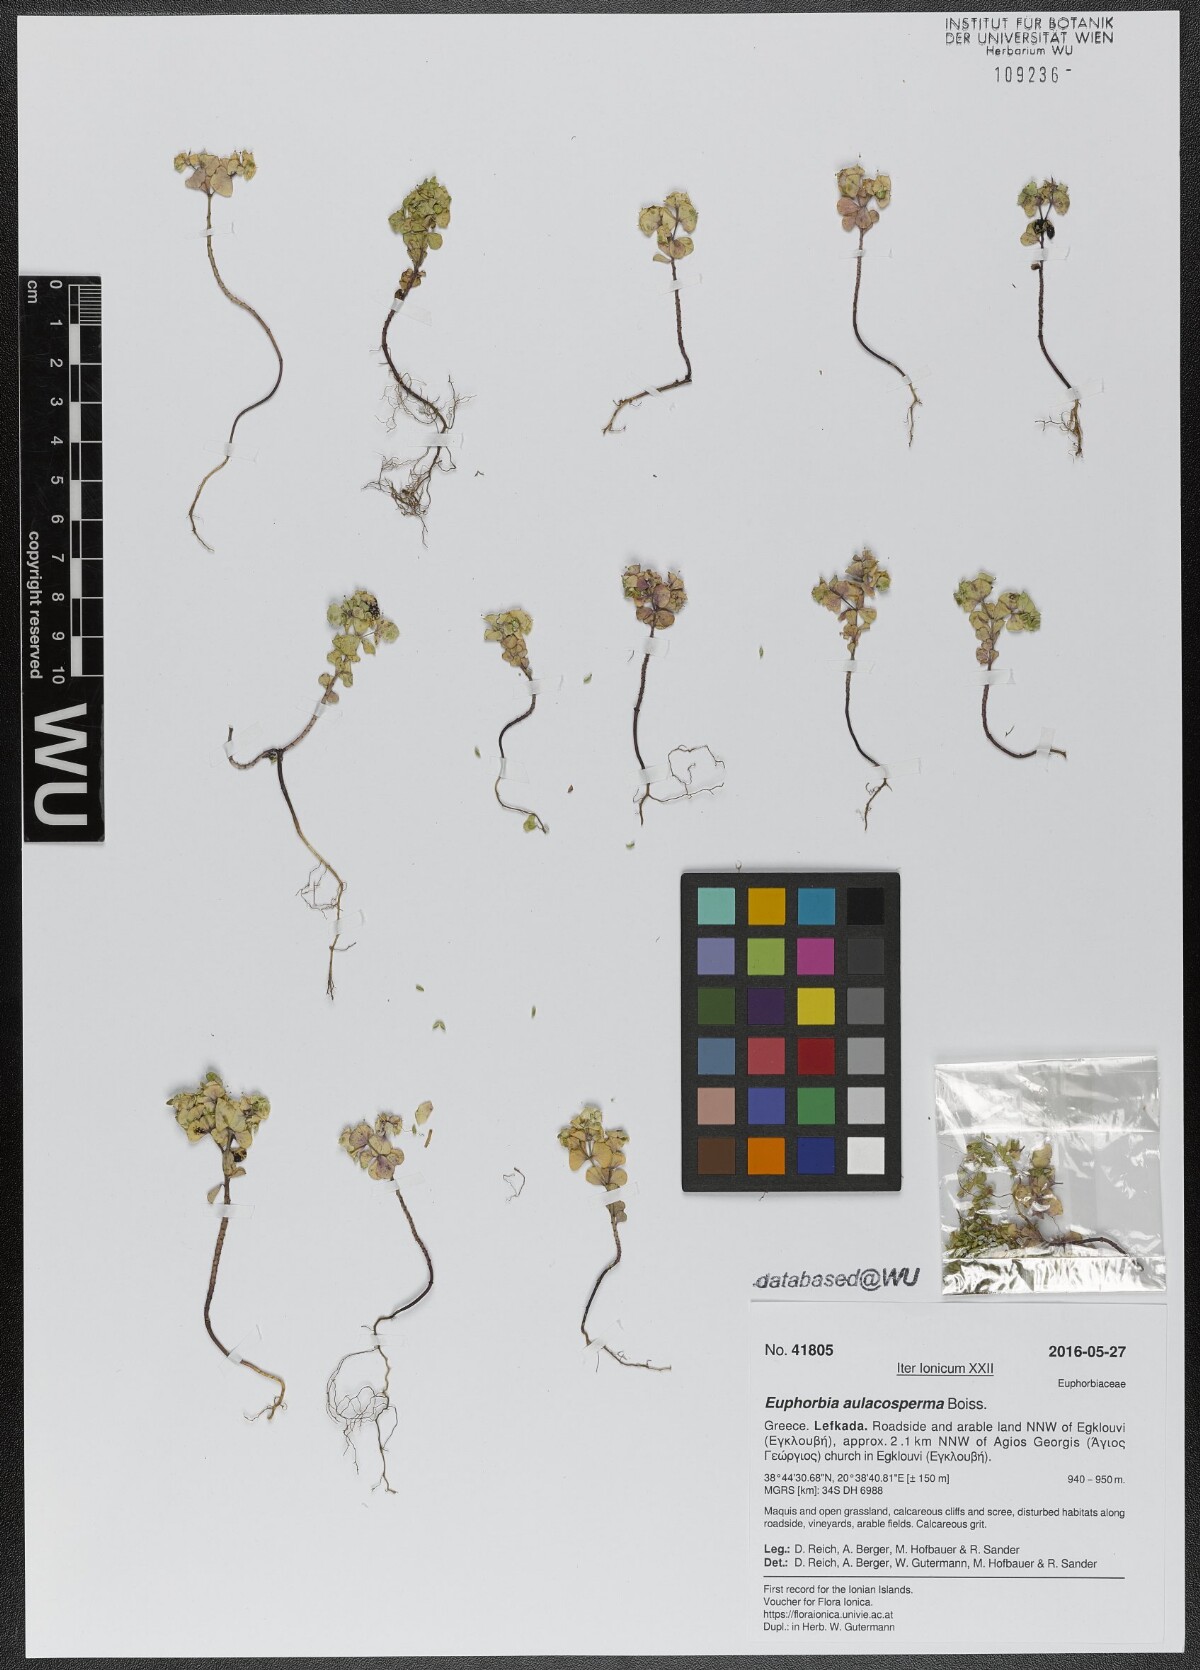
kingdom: Plantae
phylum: Tracheophyta
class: Magnoliopsida
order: Malpighiales
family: Euphorbiaceae
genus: Euphorbia
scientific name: Euphorbia aulacosperma
